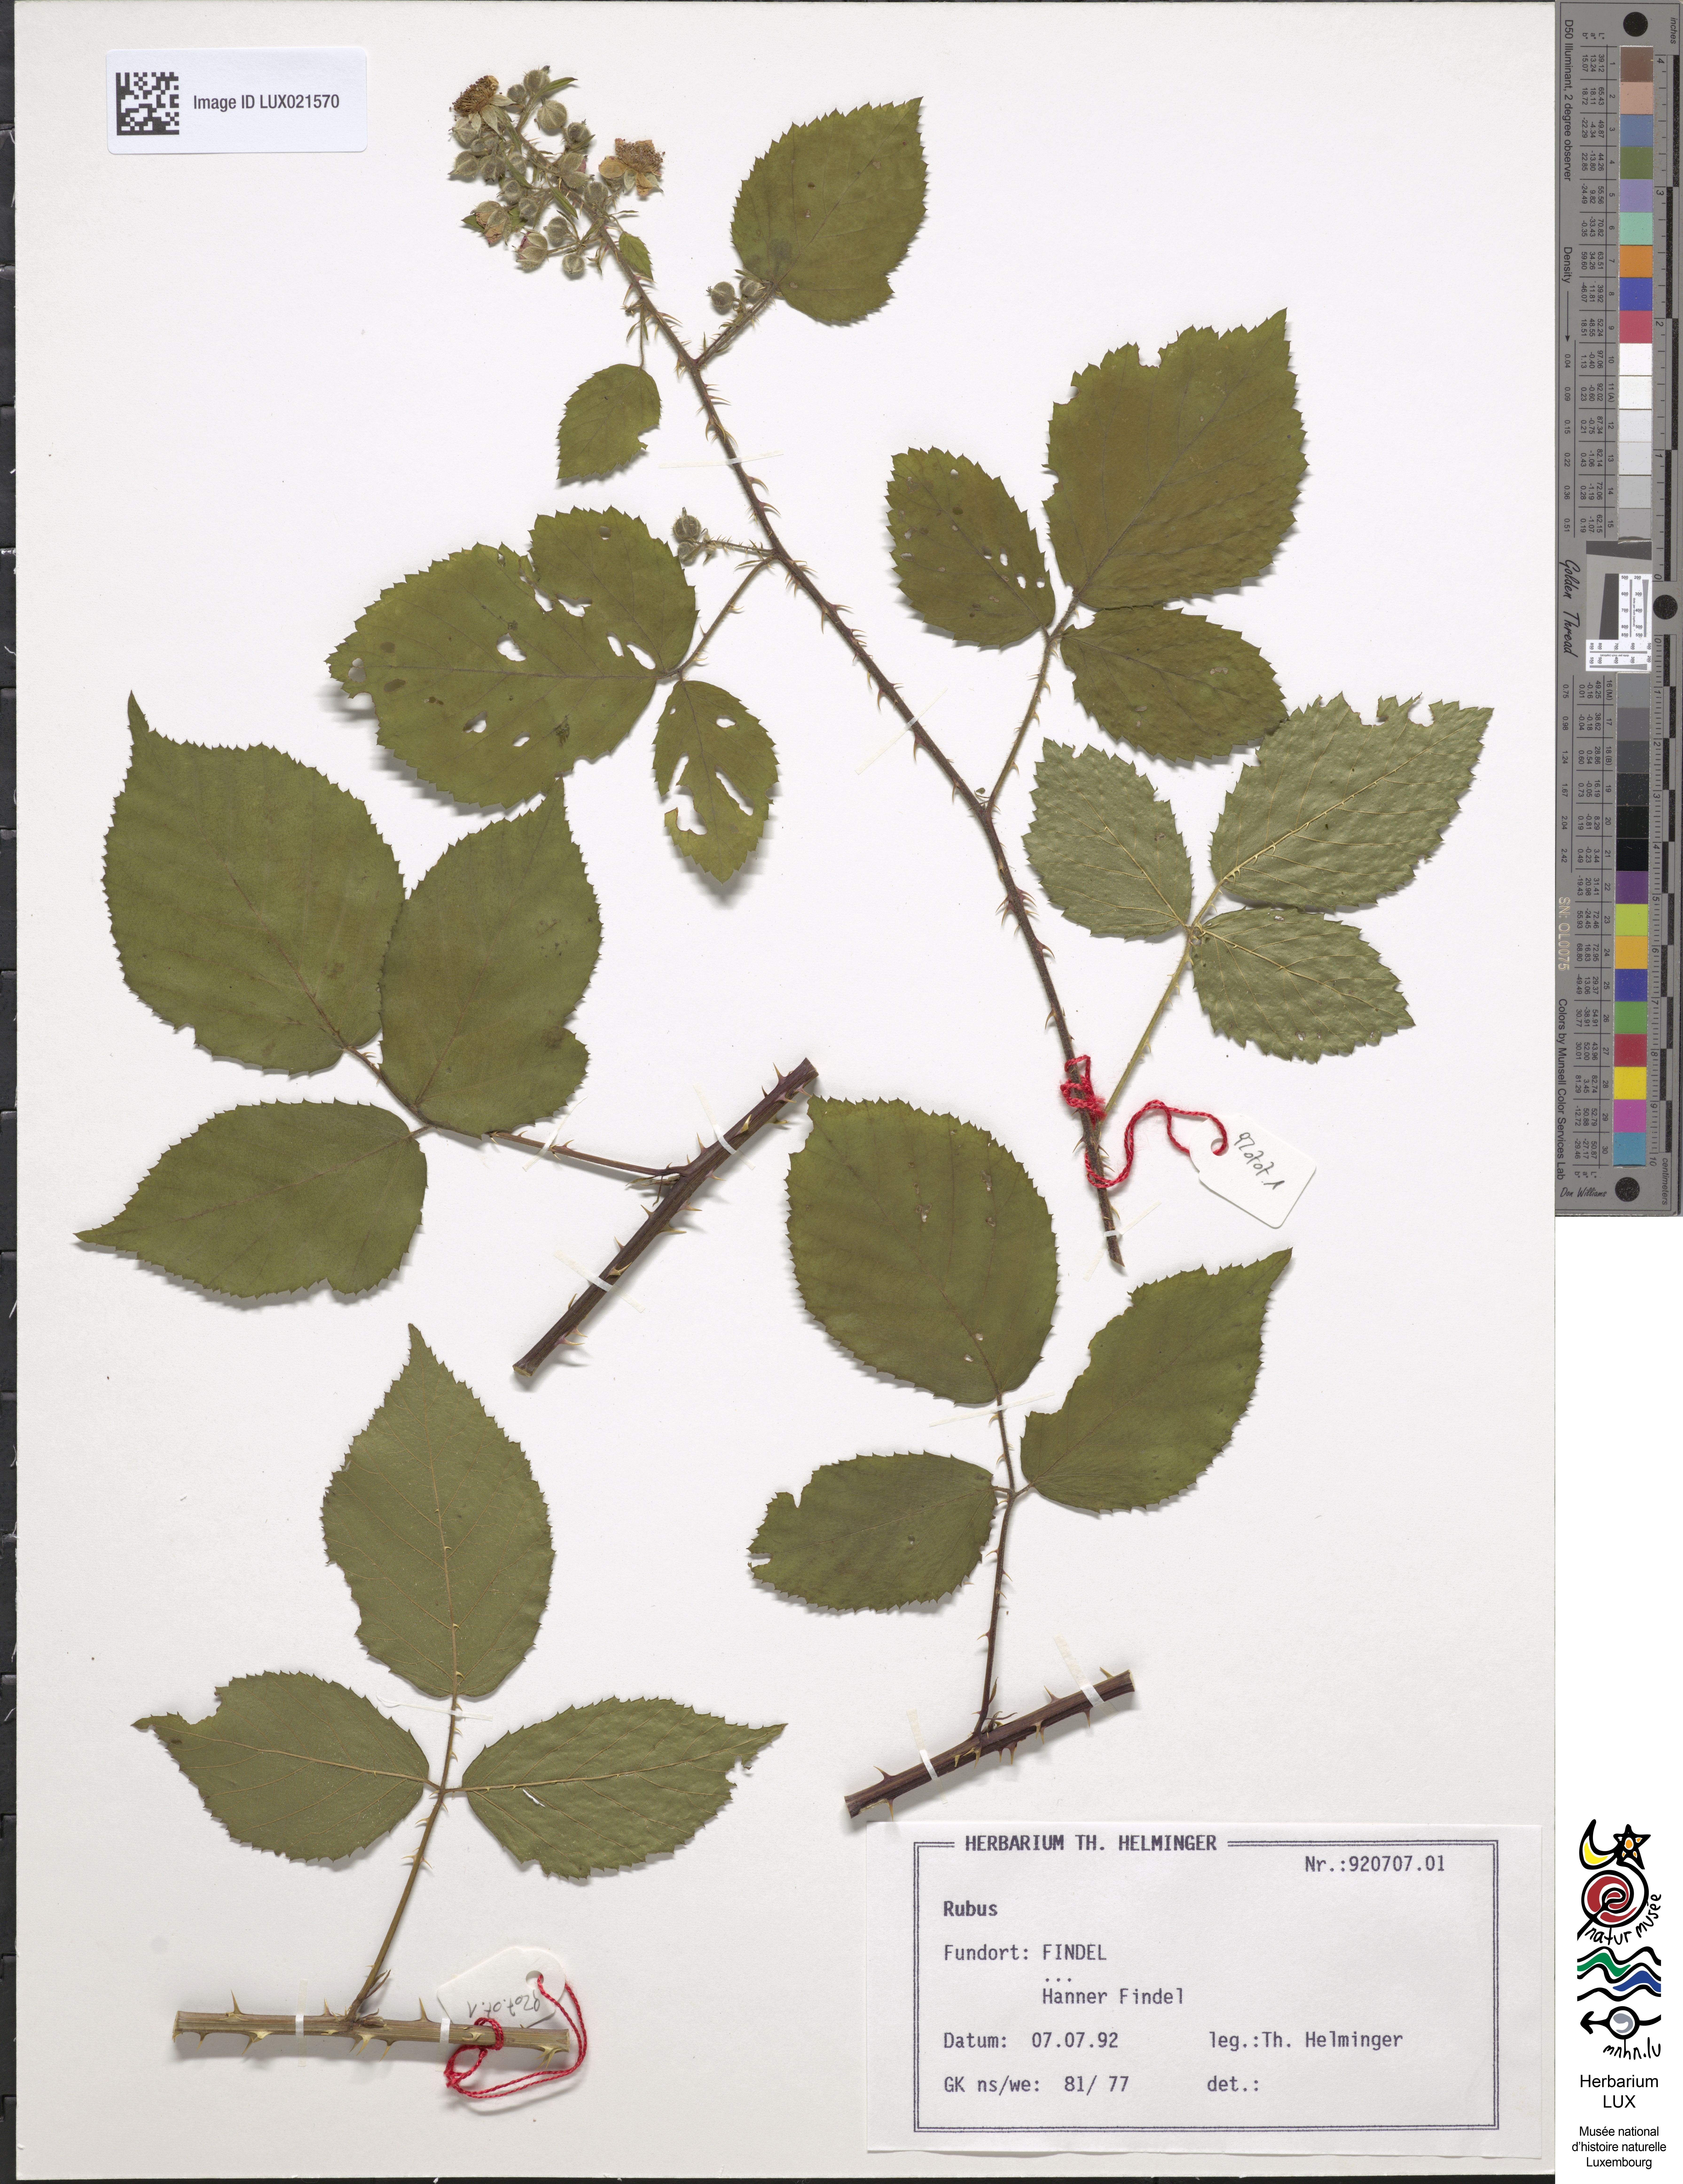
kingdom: Plantae
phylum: Tracheophyta
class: Magnoliopsida
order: Rosales
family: Rosaceae
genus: Rubus
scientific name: Rubus
